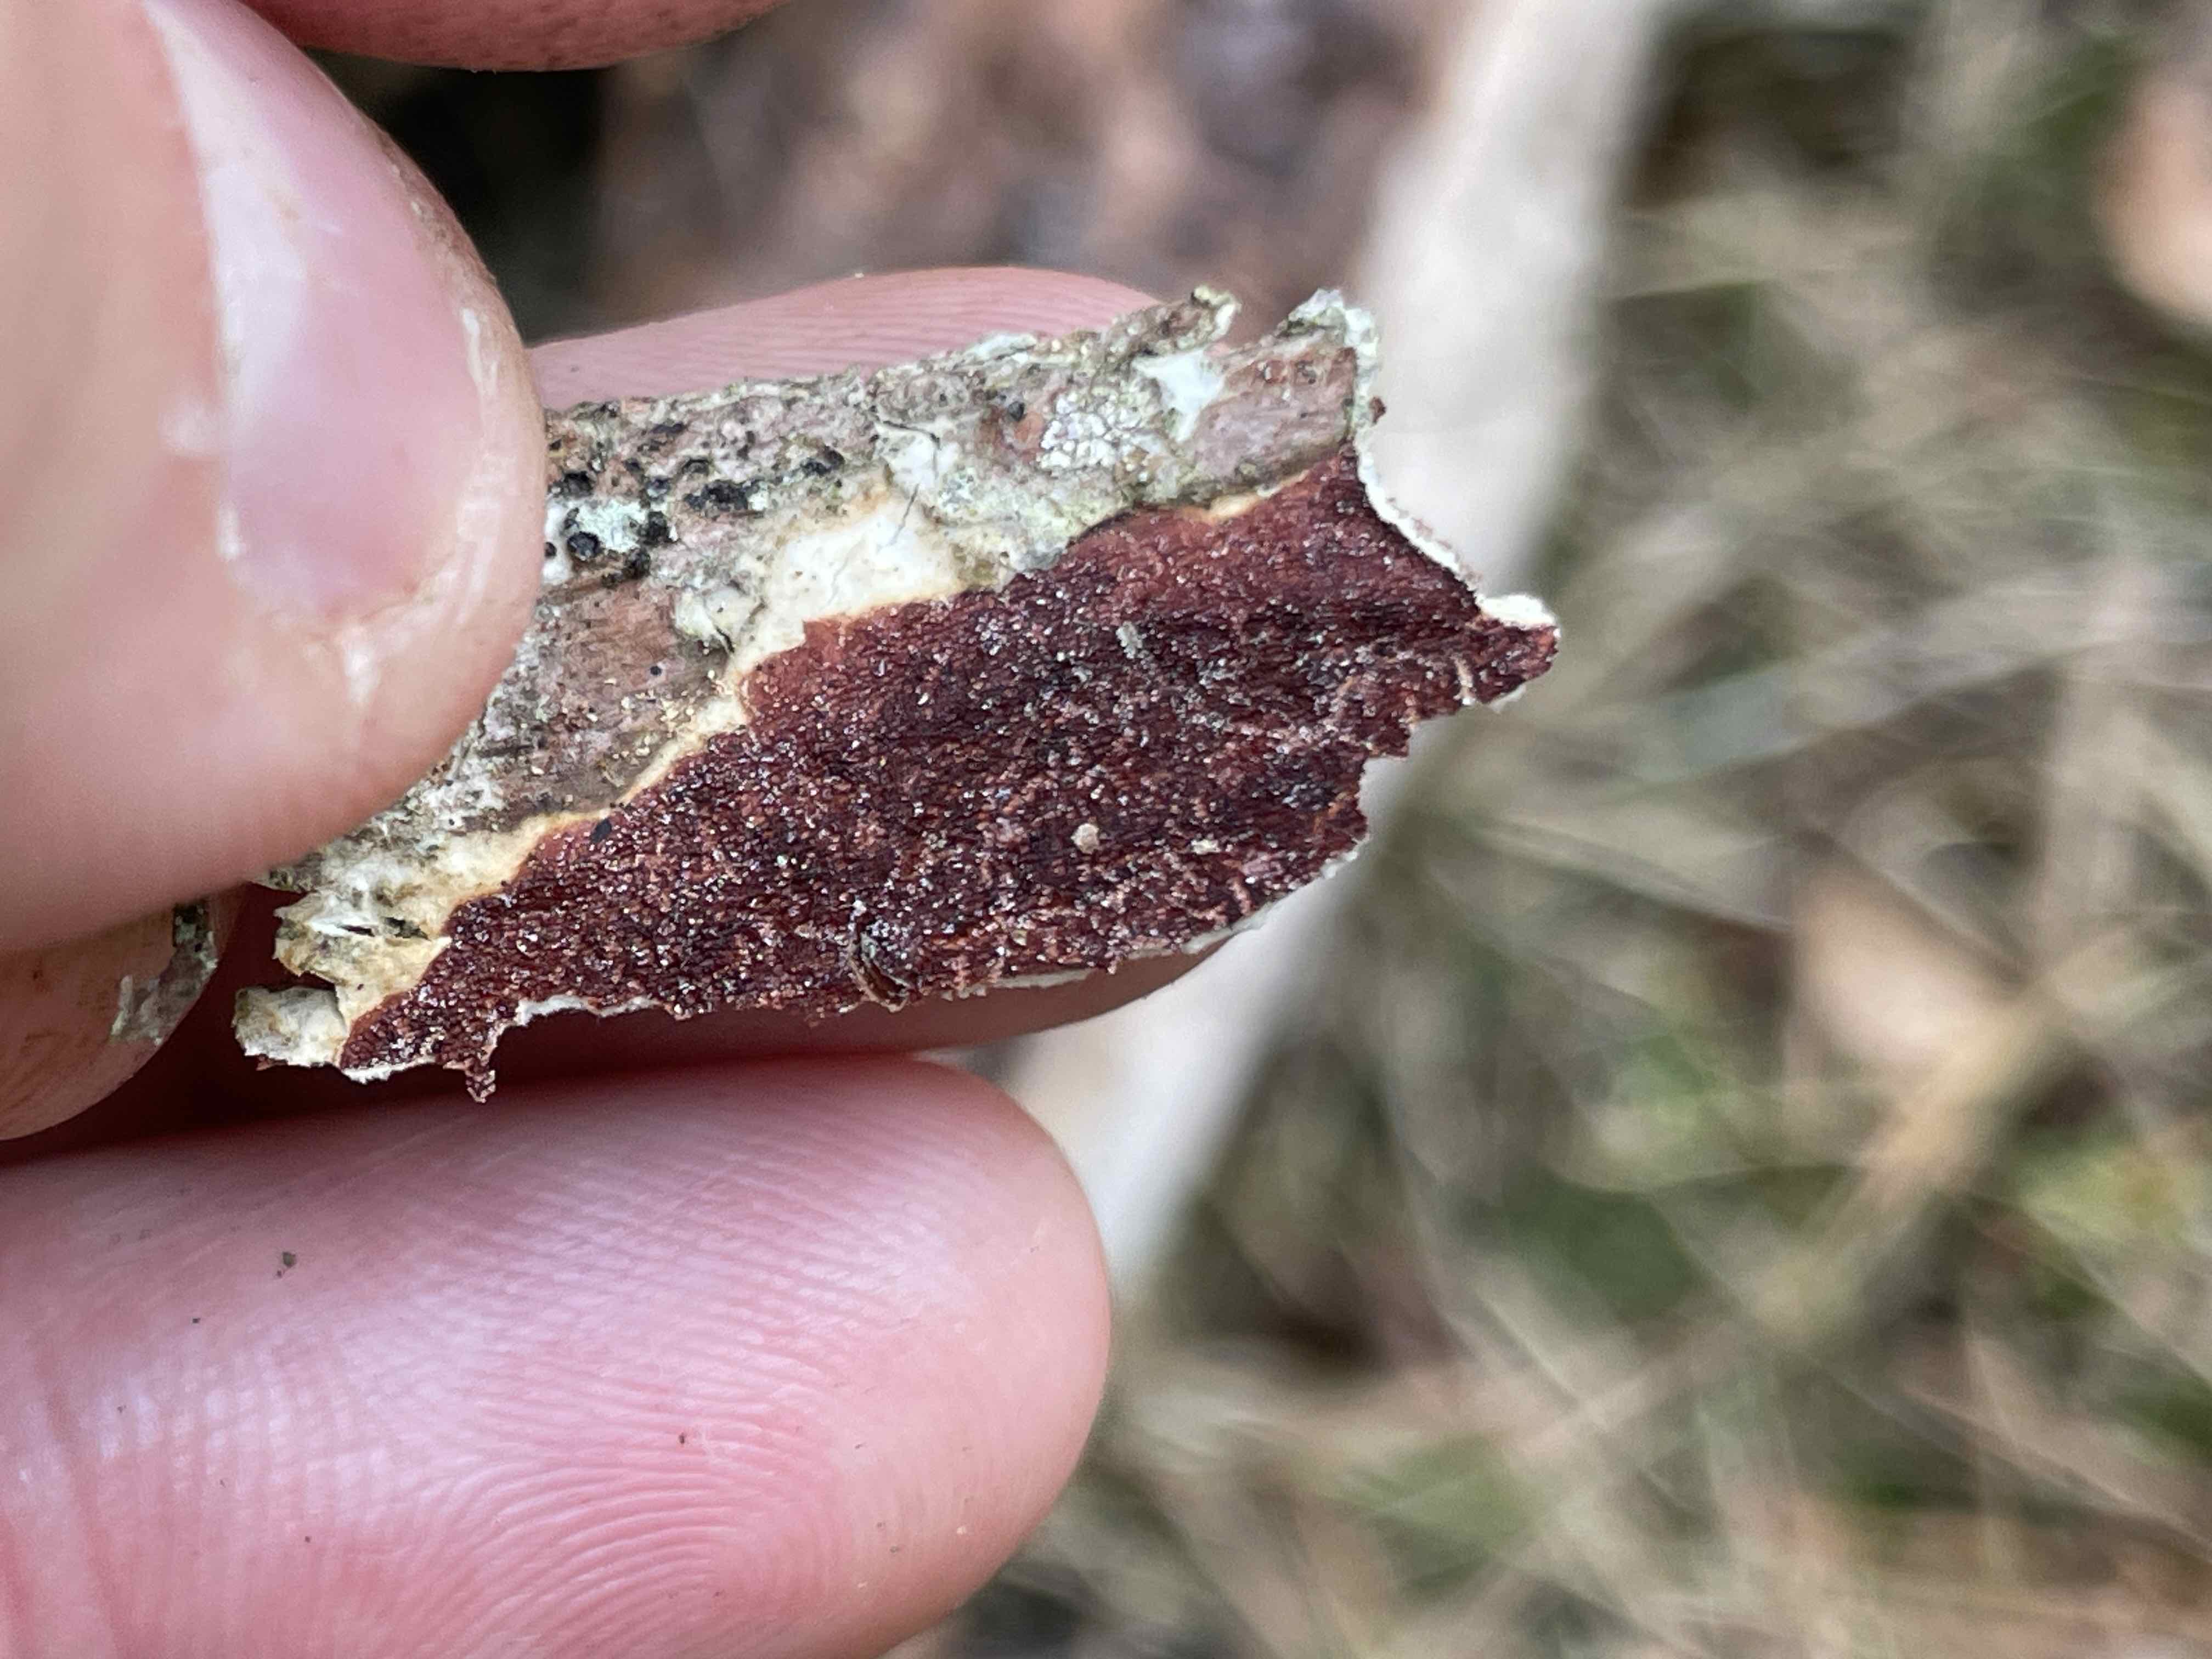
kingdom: Fungi
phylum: Basidiomycota
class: Agaricomycetes
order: Hymenochaetales
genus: Trichaptum
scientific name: Trichaptum fuscoviolaceum
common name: tandet violporesvamp
